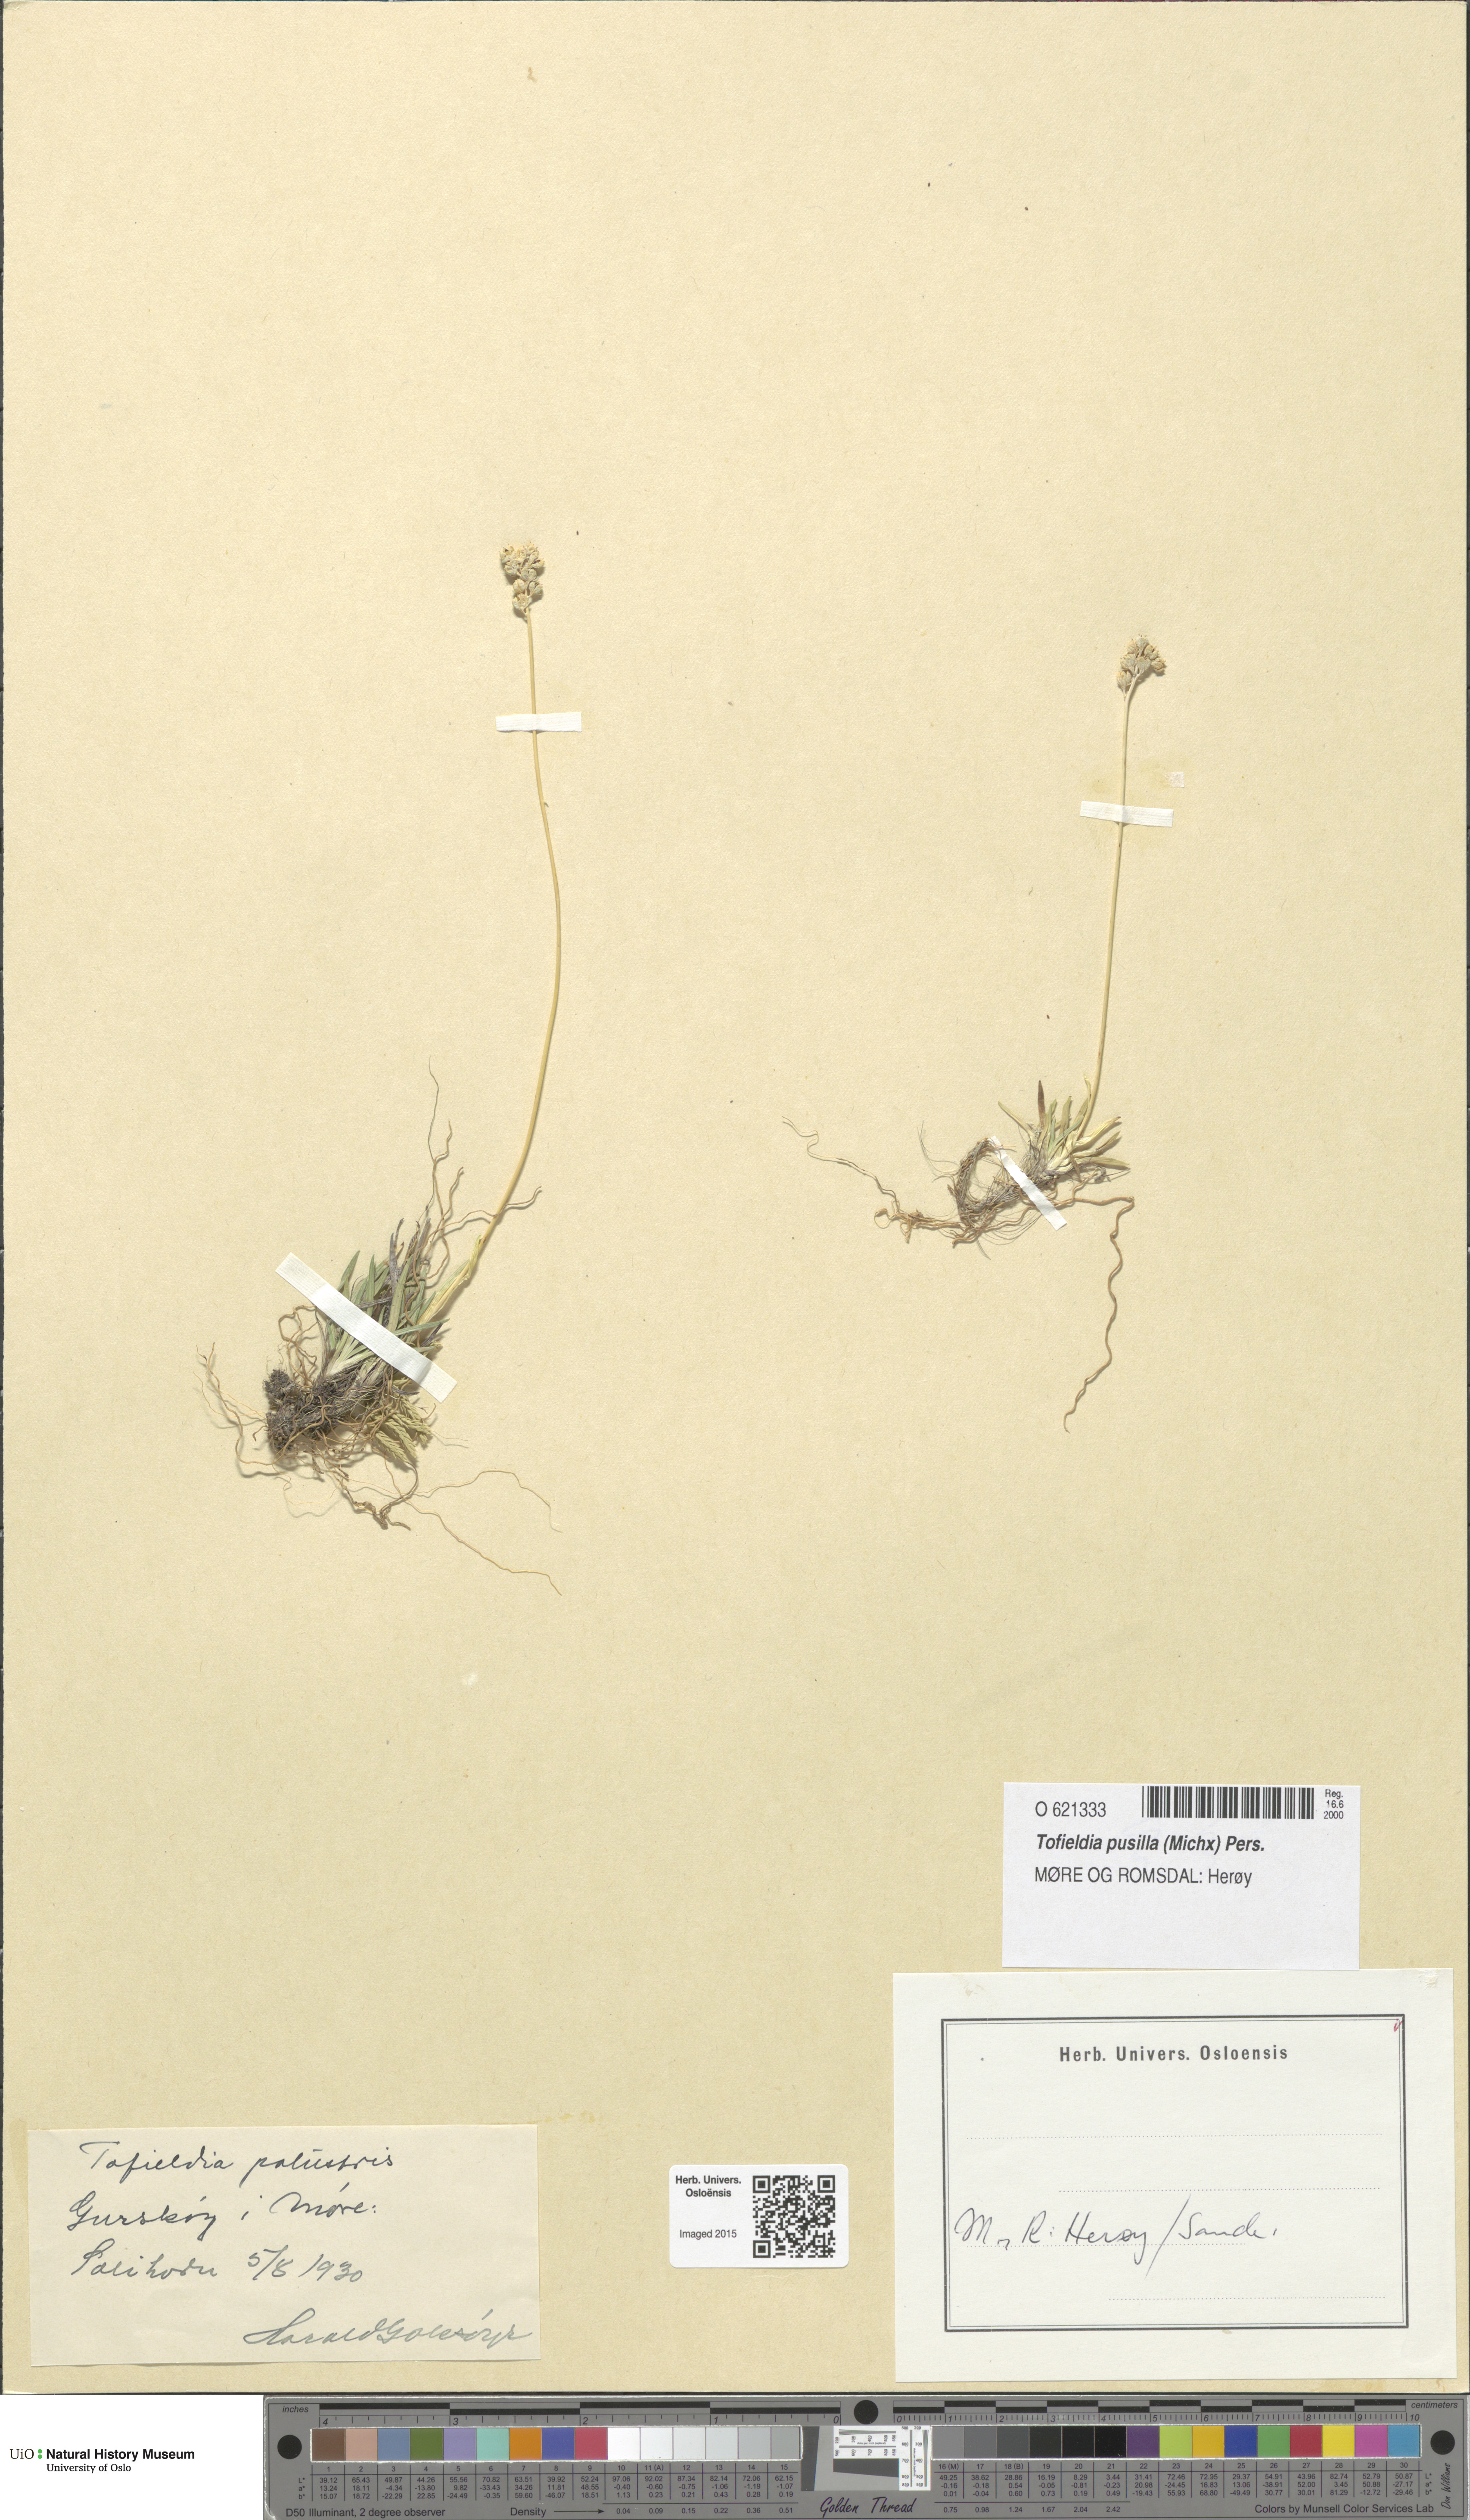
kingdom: Plantae
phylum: Tracheophyta
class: Liliopsida
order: Alismatales
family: Tofieldiaceae
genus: Tofieldia
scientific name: Tofieldia pusilla
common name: Scottish false asphodel
